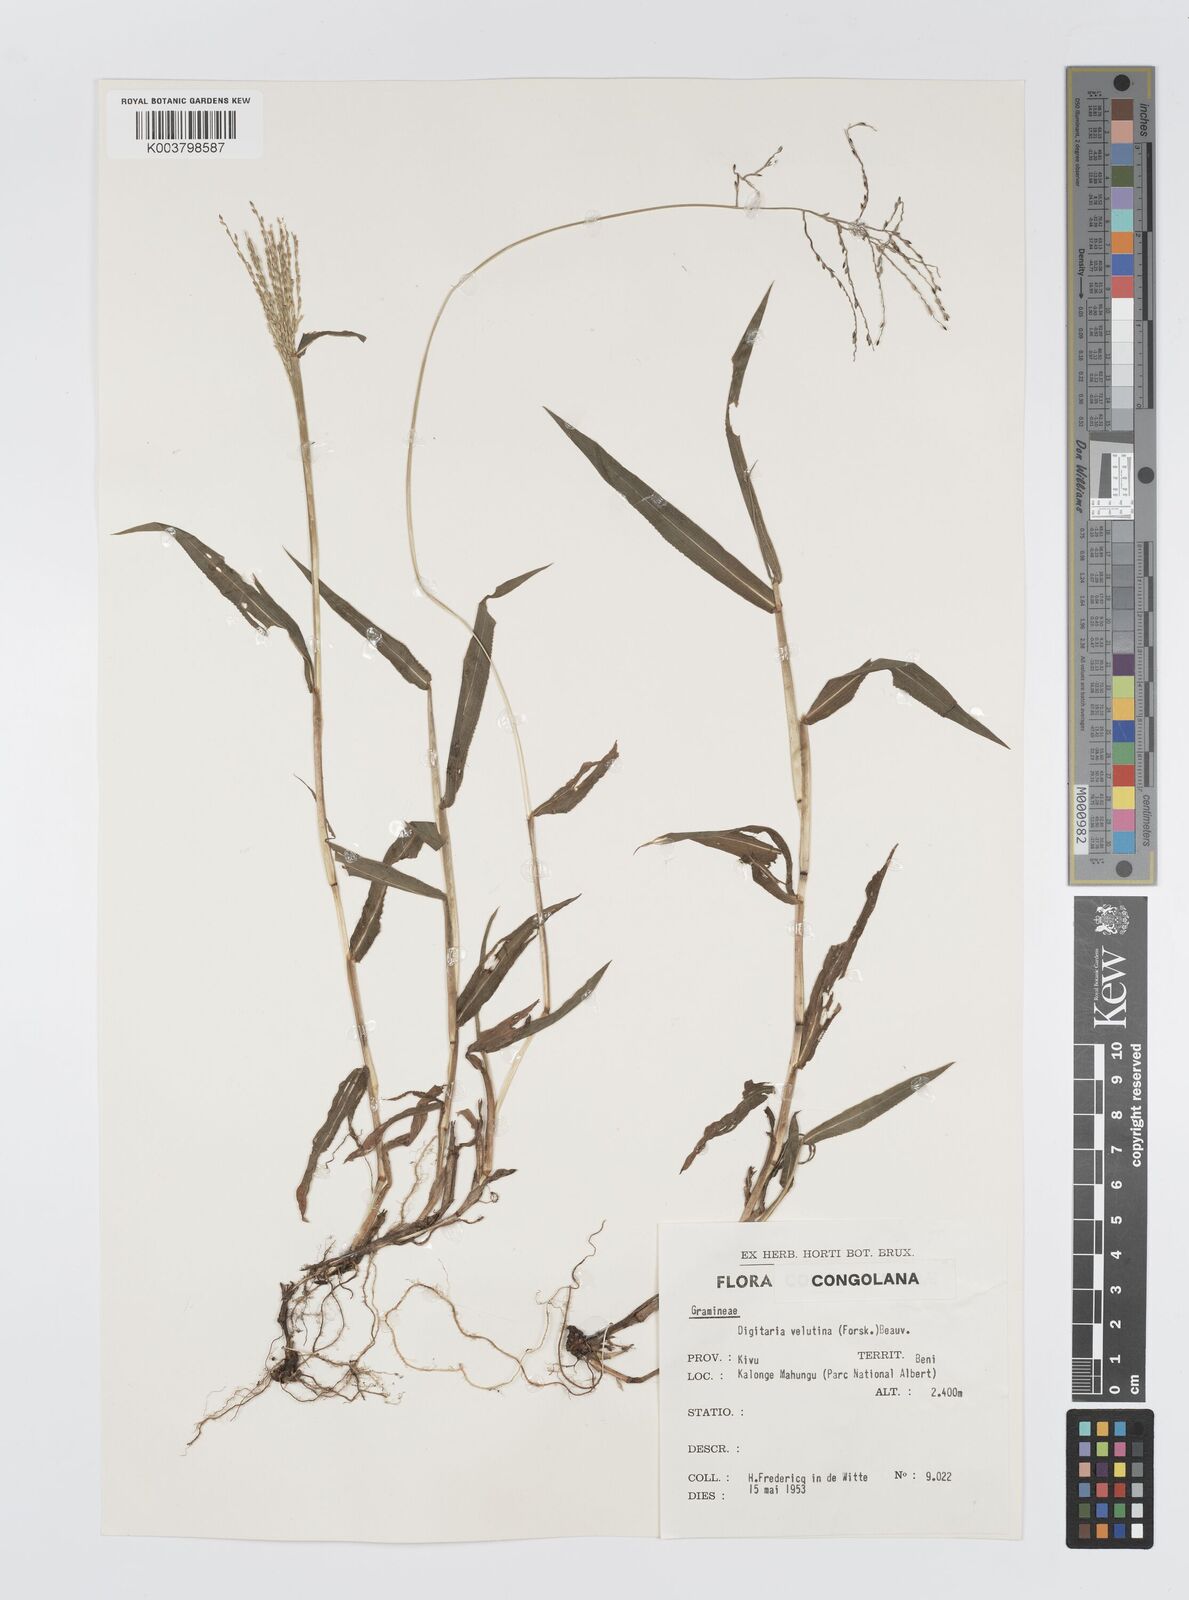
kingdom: Plantae
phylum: Tracheophyta
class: Liliopsida
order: Poales
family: Poaceae
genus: Digitaria
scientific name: Digitaria pearsonii
